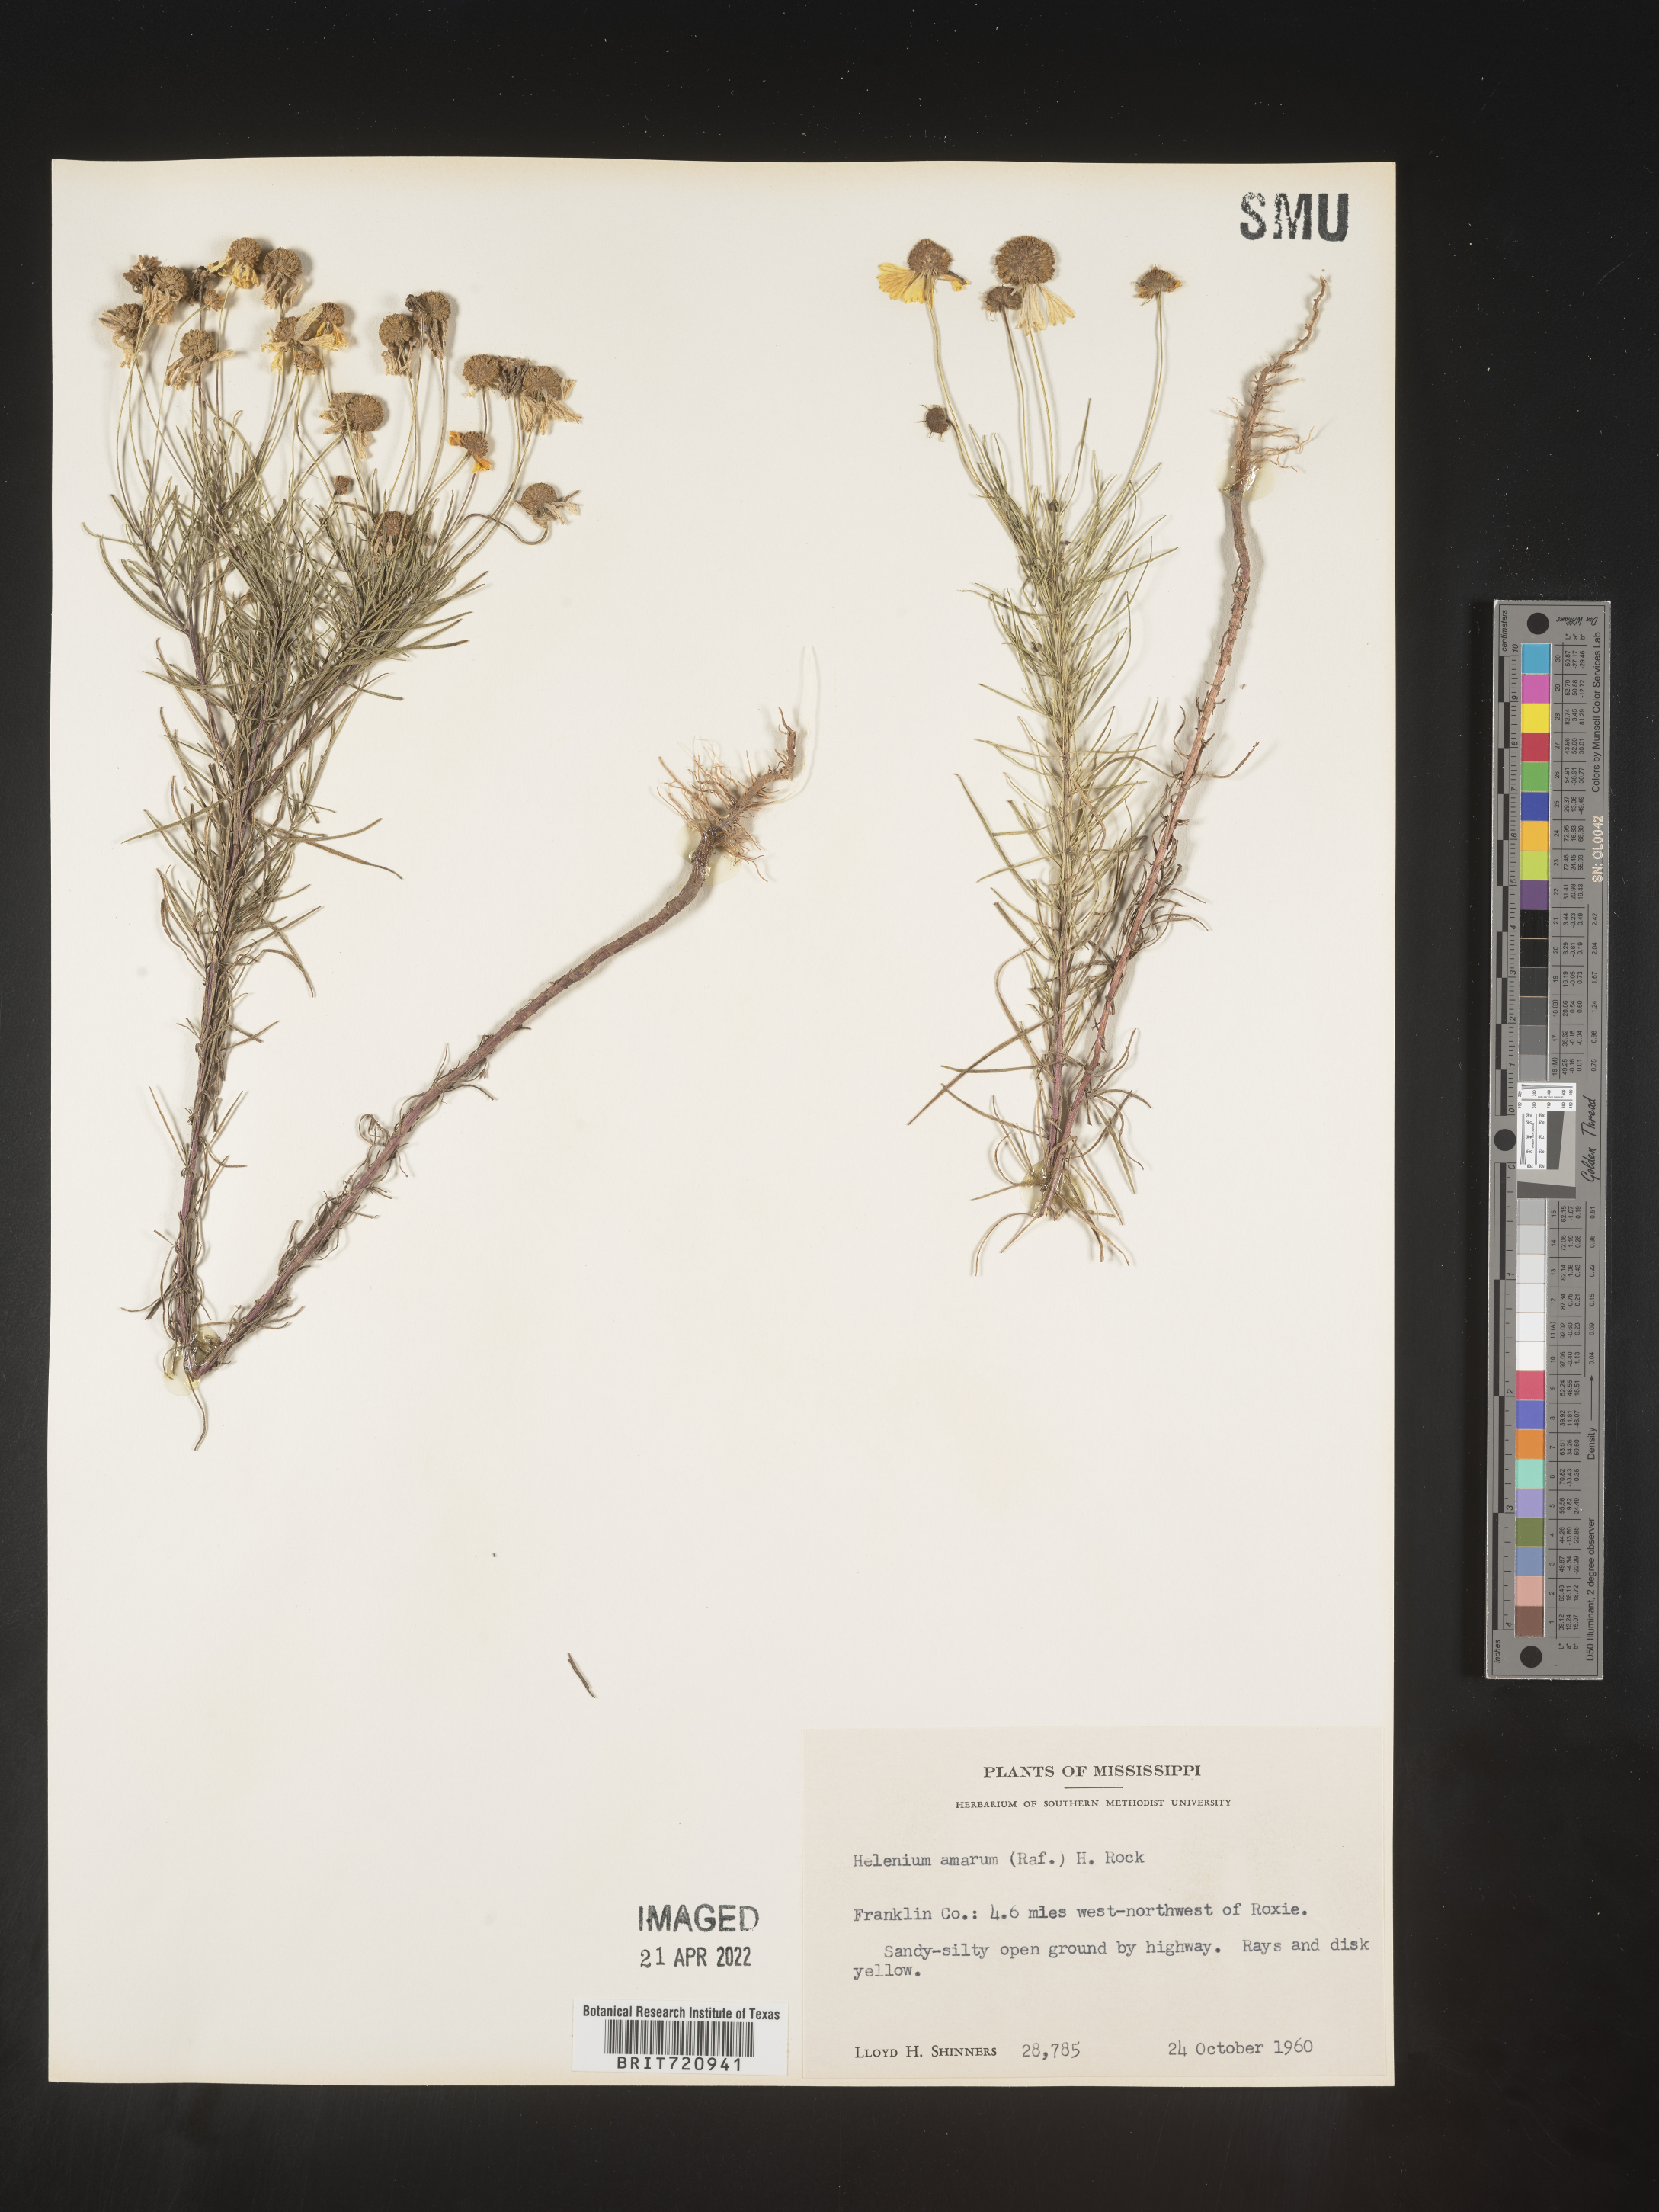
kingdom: Plantae
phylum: Tracheophyta
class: Magnoliopsida
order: Asterales
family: Asteraceae
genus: Helenium
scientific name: Helenium amarum
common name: Bitter sneezeweed
